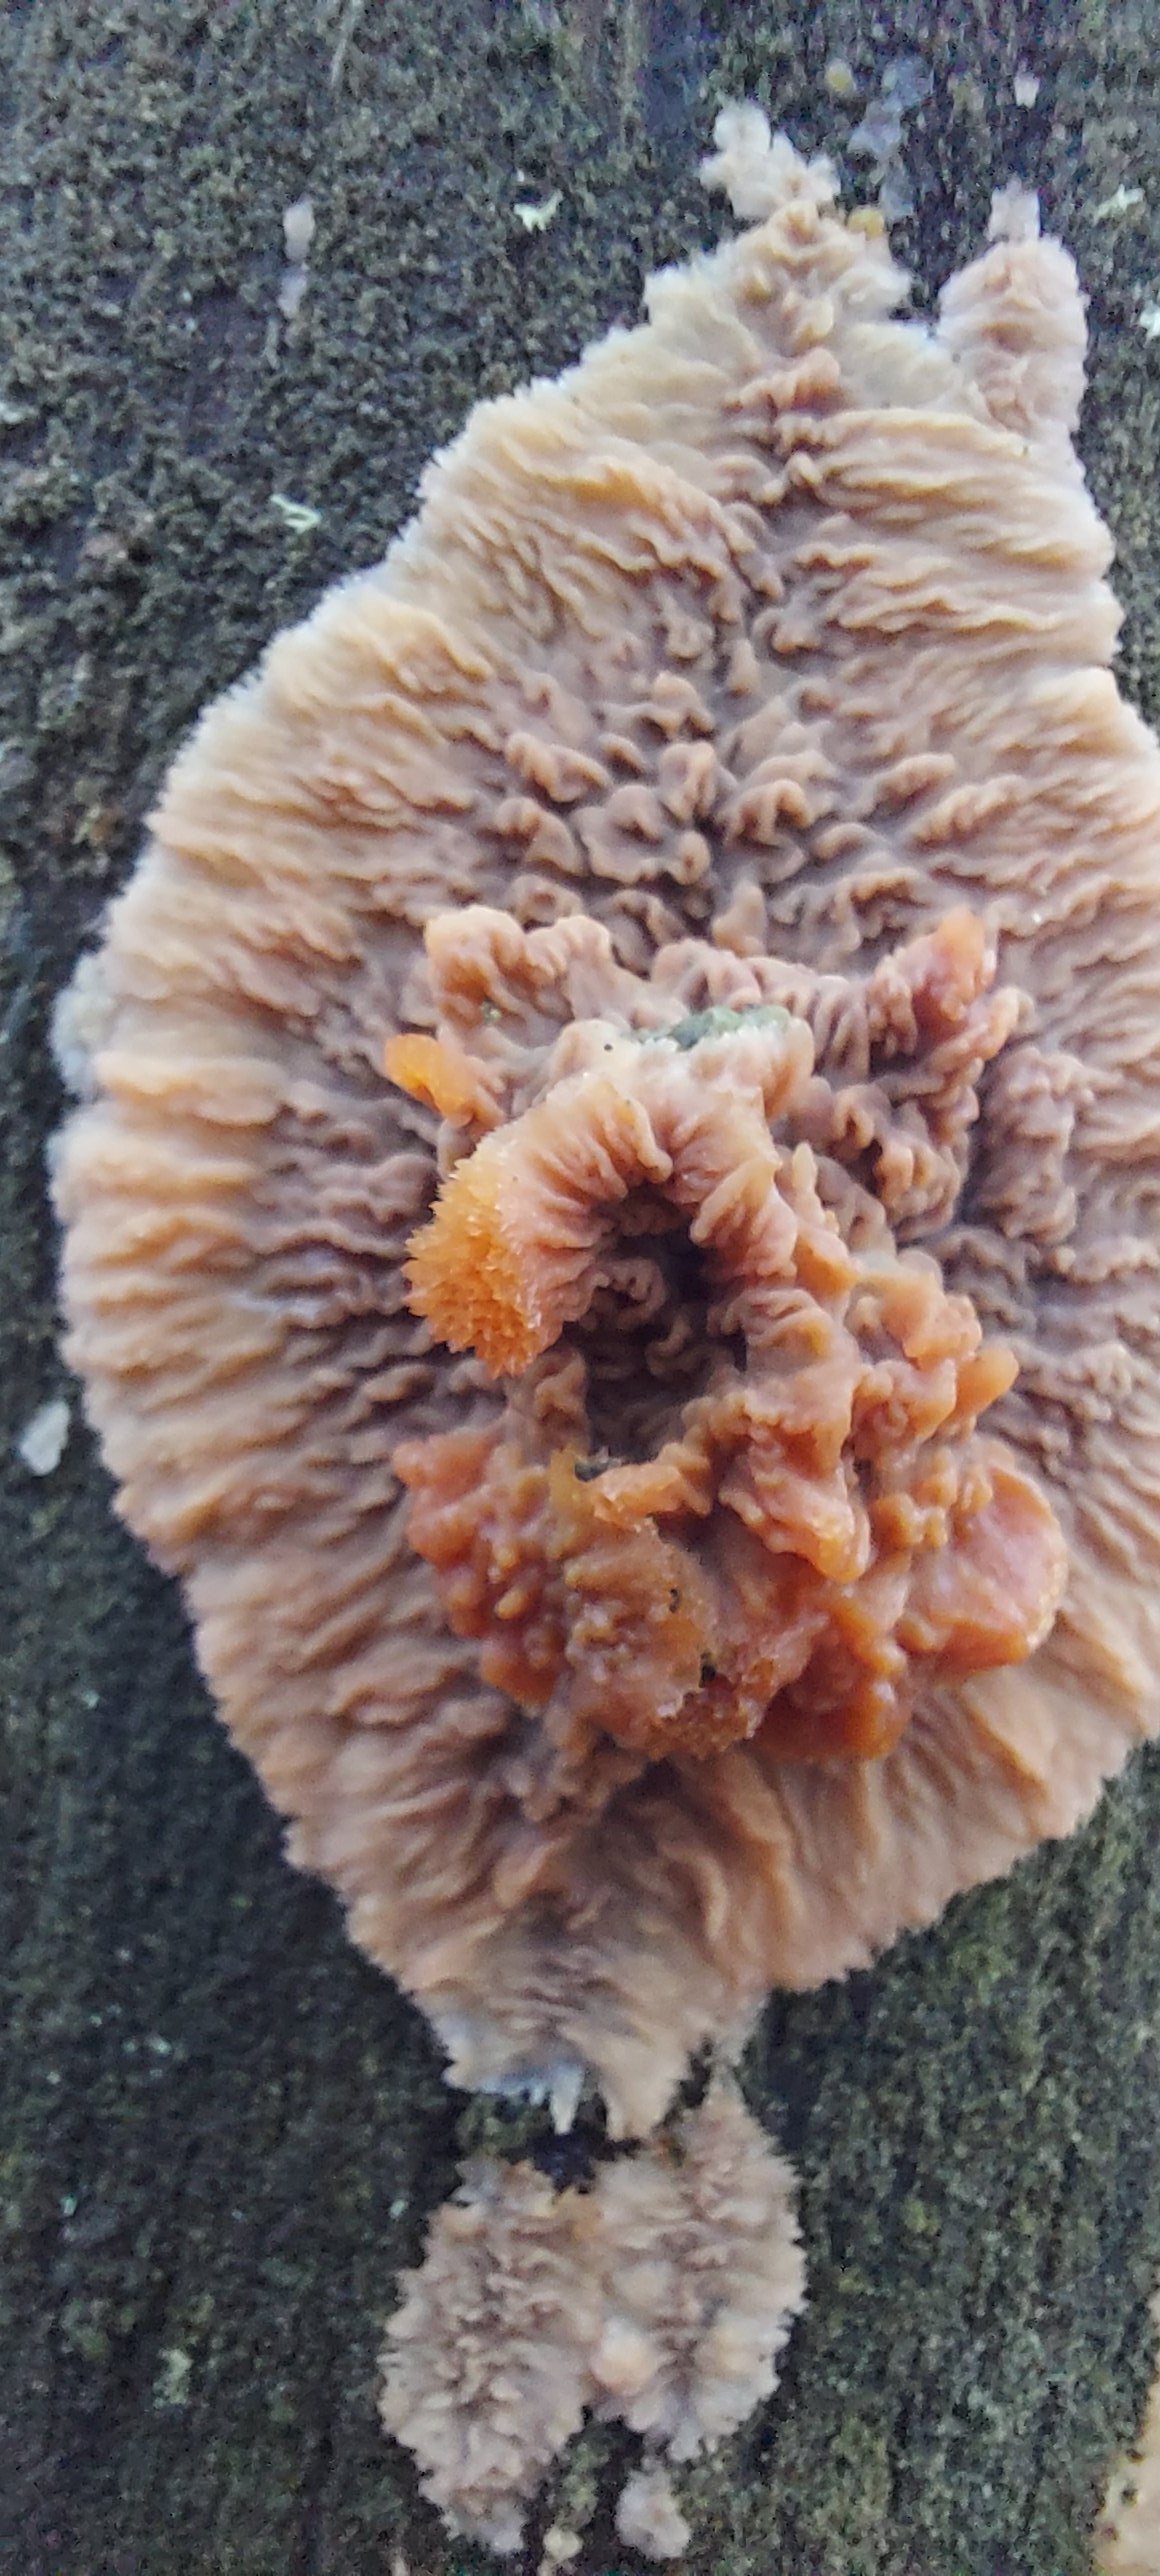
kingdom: Fungi
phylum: Basidiomycota
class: Agaricomycetes
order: Polyporales
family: Meruliaceae
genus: Phlebia
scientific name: Phlebia radiata
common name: stråle-åresvamp
